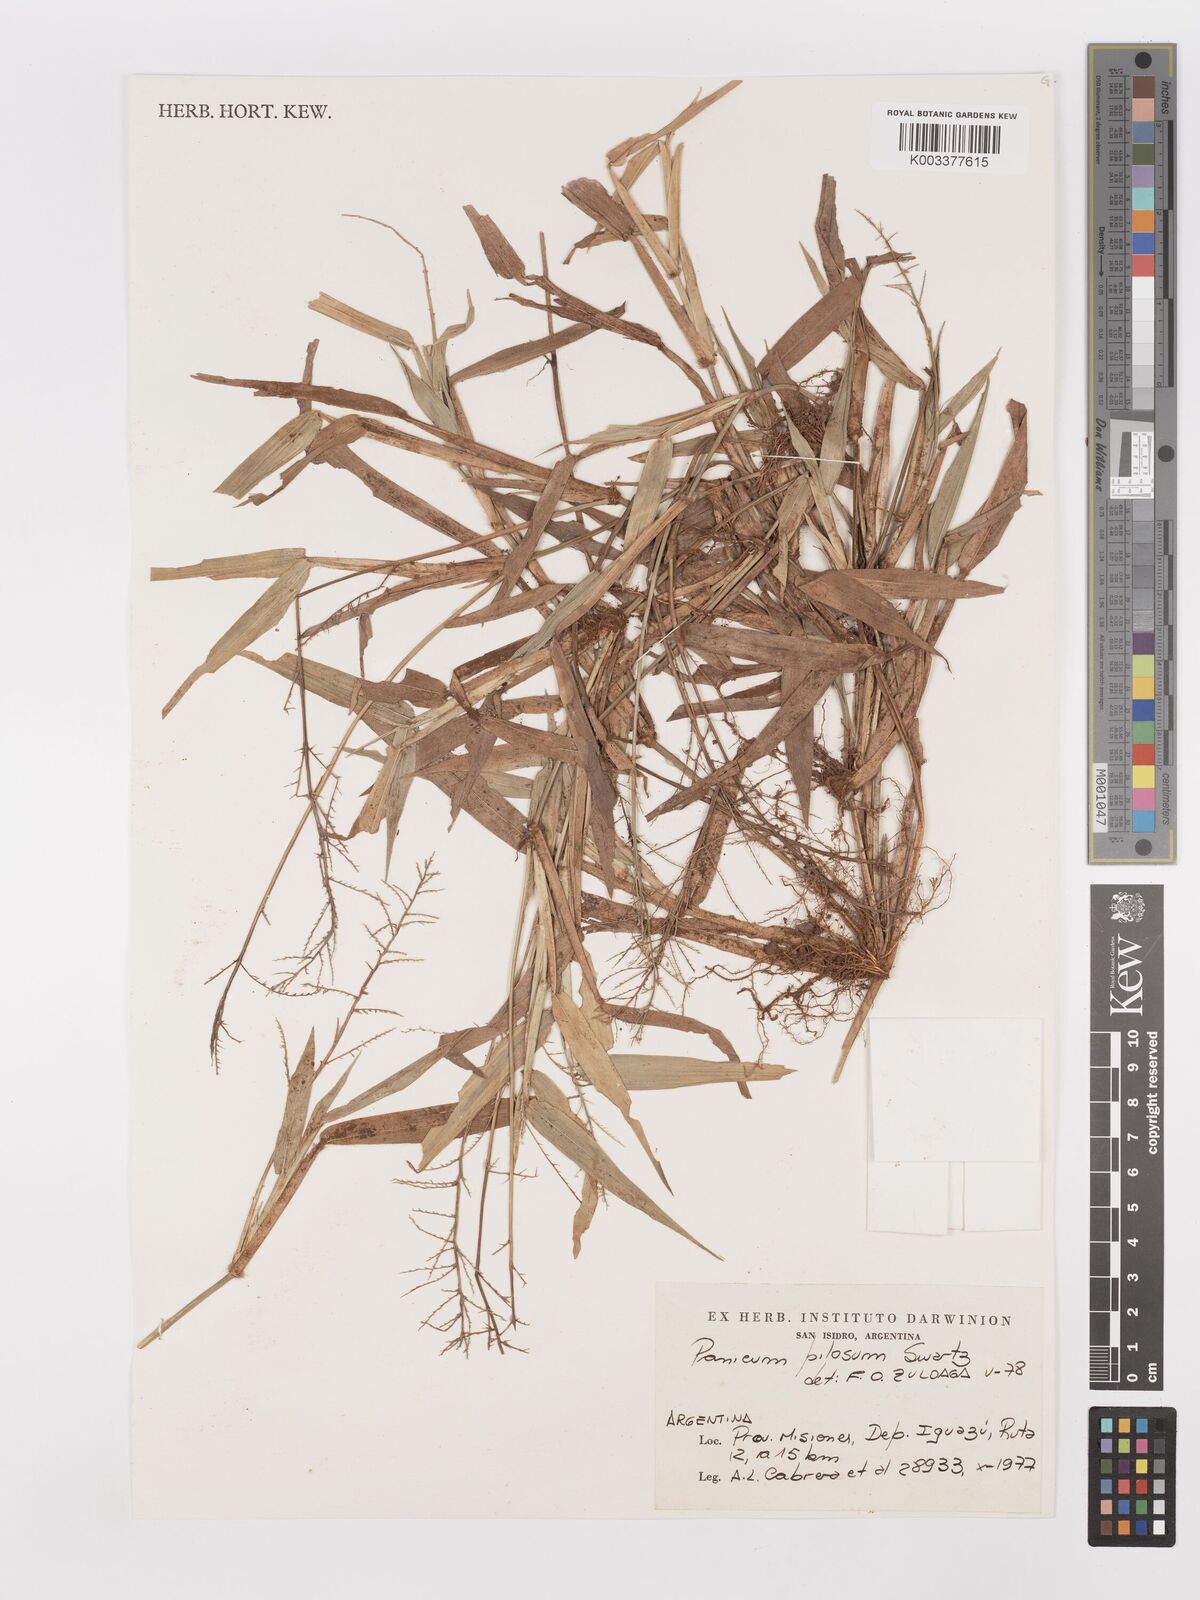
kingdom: Plantae
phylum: Tracheophyta
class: Liliopsida
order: Poales
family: Poaceae
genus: Panicum
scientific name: Panicum
